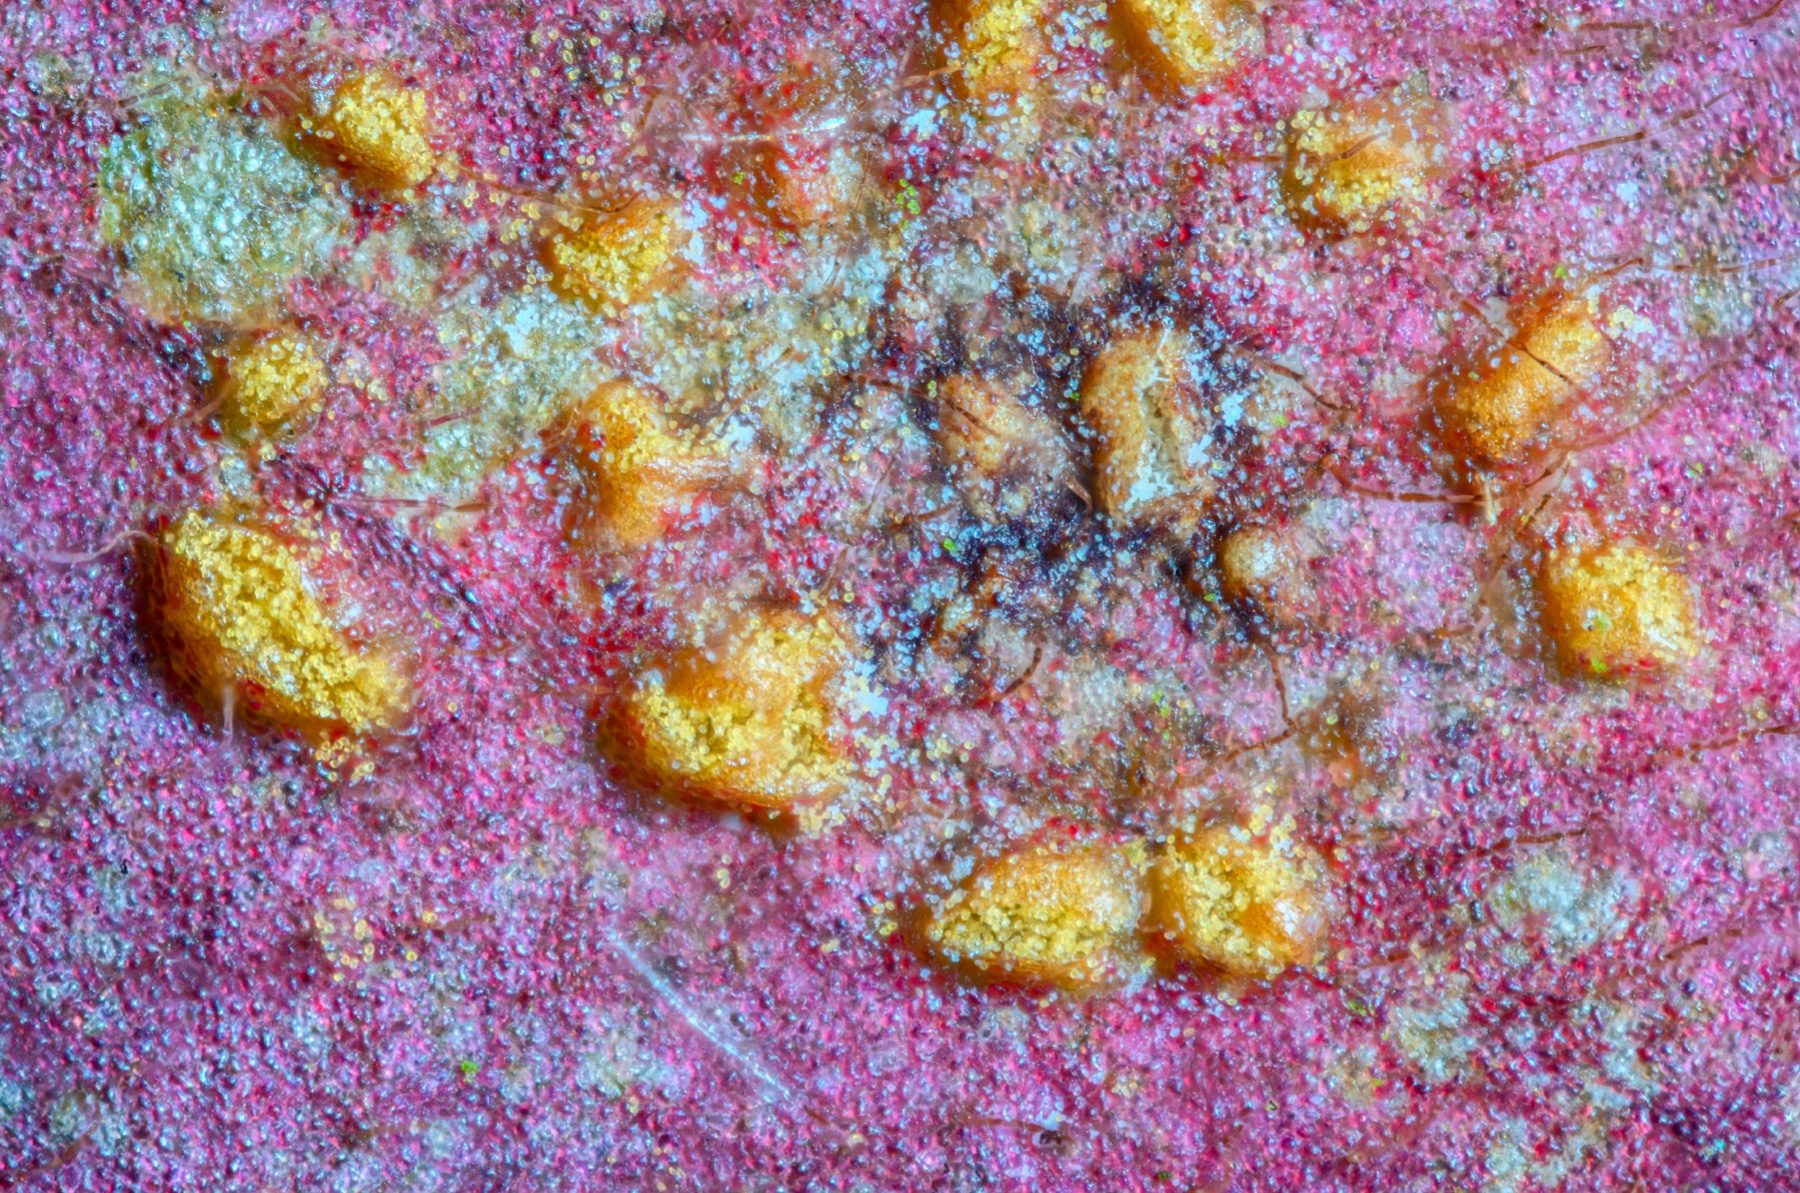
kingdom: Fungi
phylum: Basidiomycota
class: Pucciniomycetes
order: Pucciniales
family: Melampsoraceae
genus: Melampsora
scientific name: Melampsora euphorbiae-amygdaloidis
